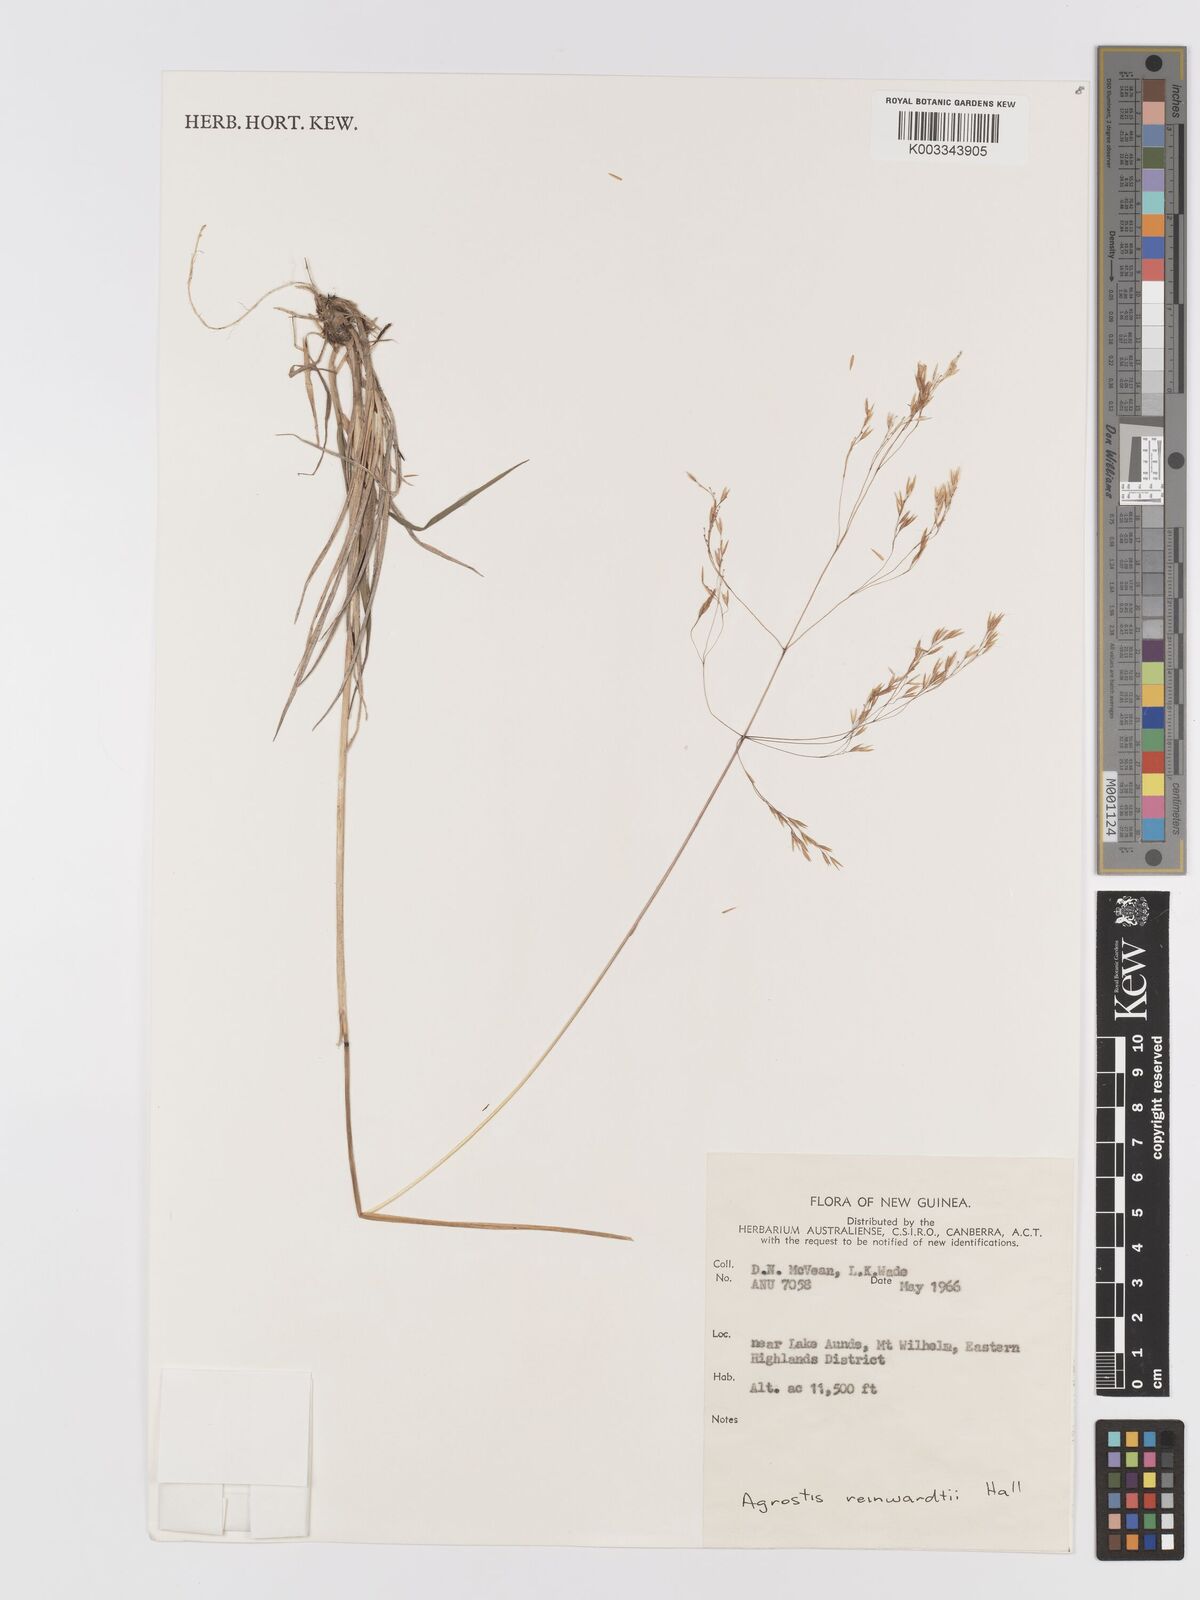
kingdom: Plantae
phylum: Tracheophyta
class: Liliopsida
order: Poales
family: Poaceae
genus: Agrostis
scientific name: Agrostis infirma
